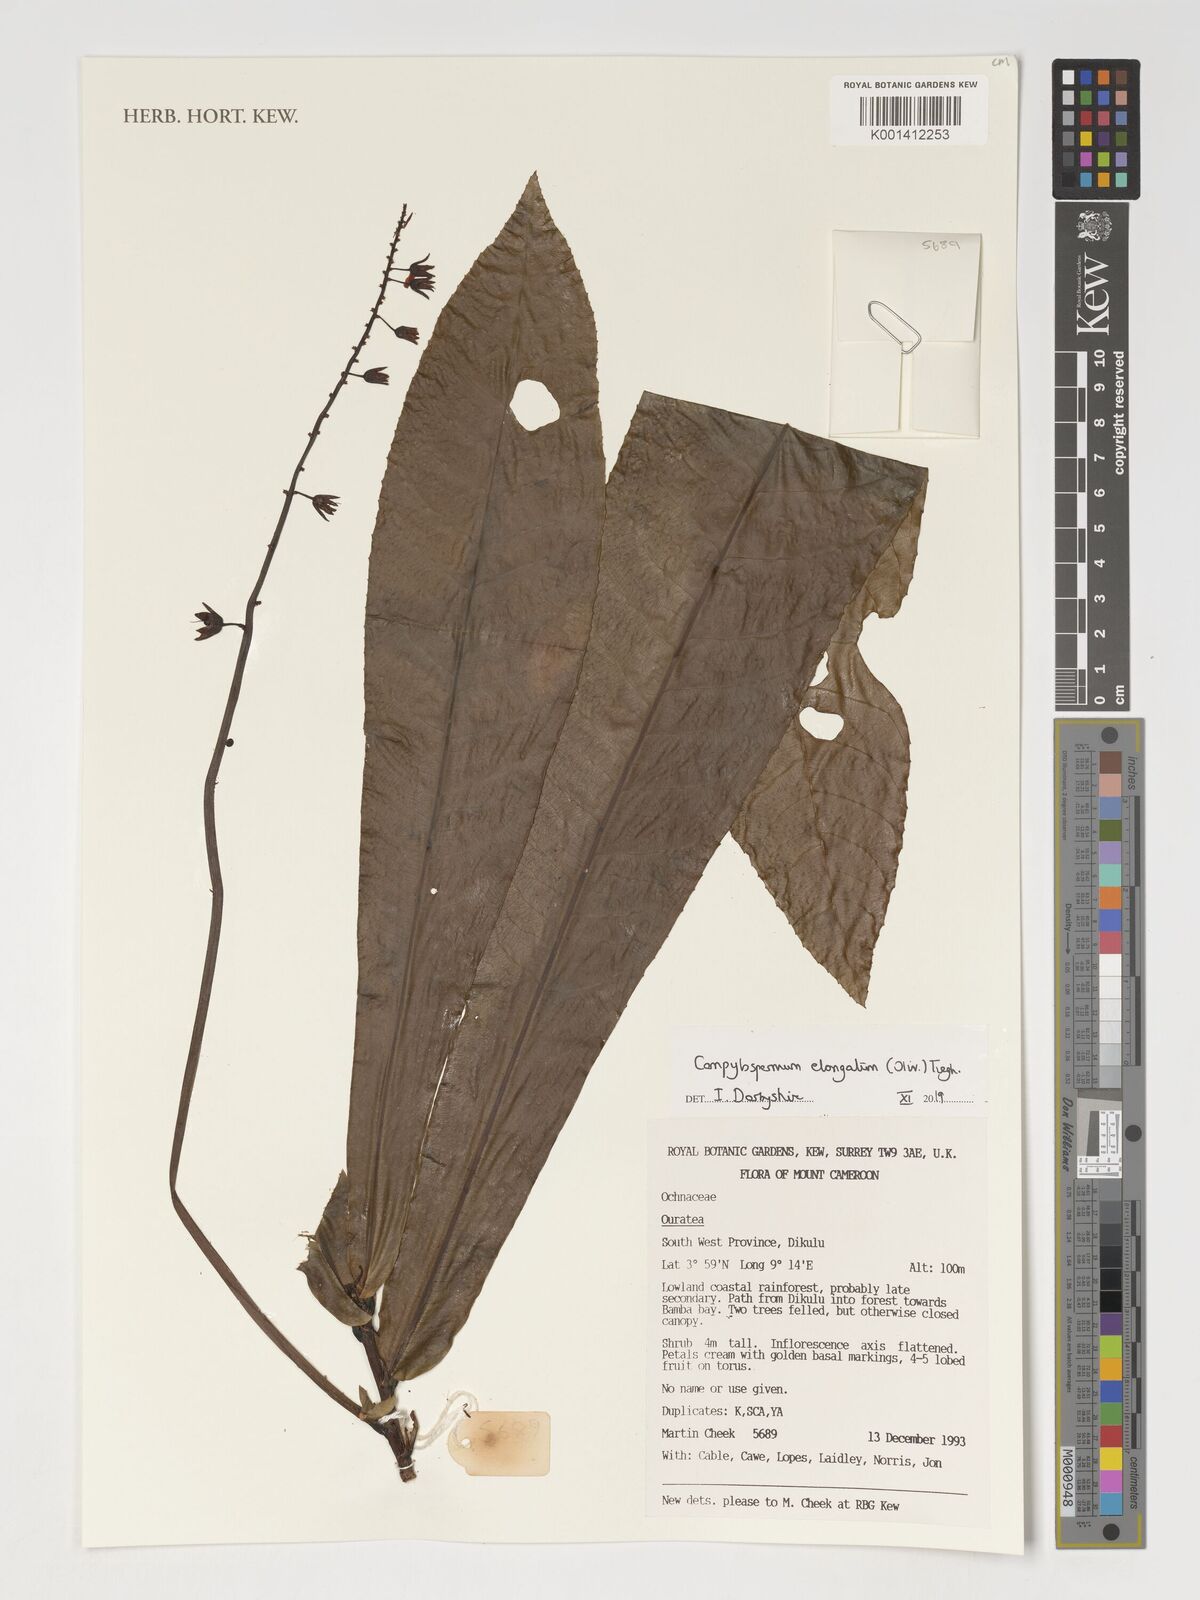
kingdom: Plantae
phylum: Tracheophyta
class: Magnoliopsida
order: Malpighiales
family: Ochnaceae
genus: Gomphia
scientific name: Gomphia elongata
